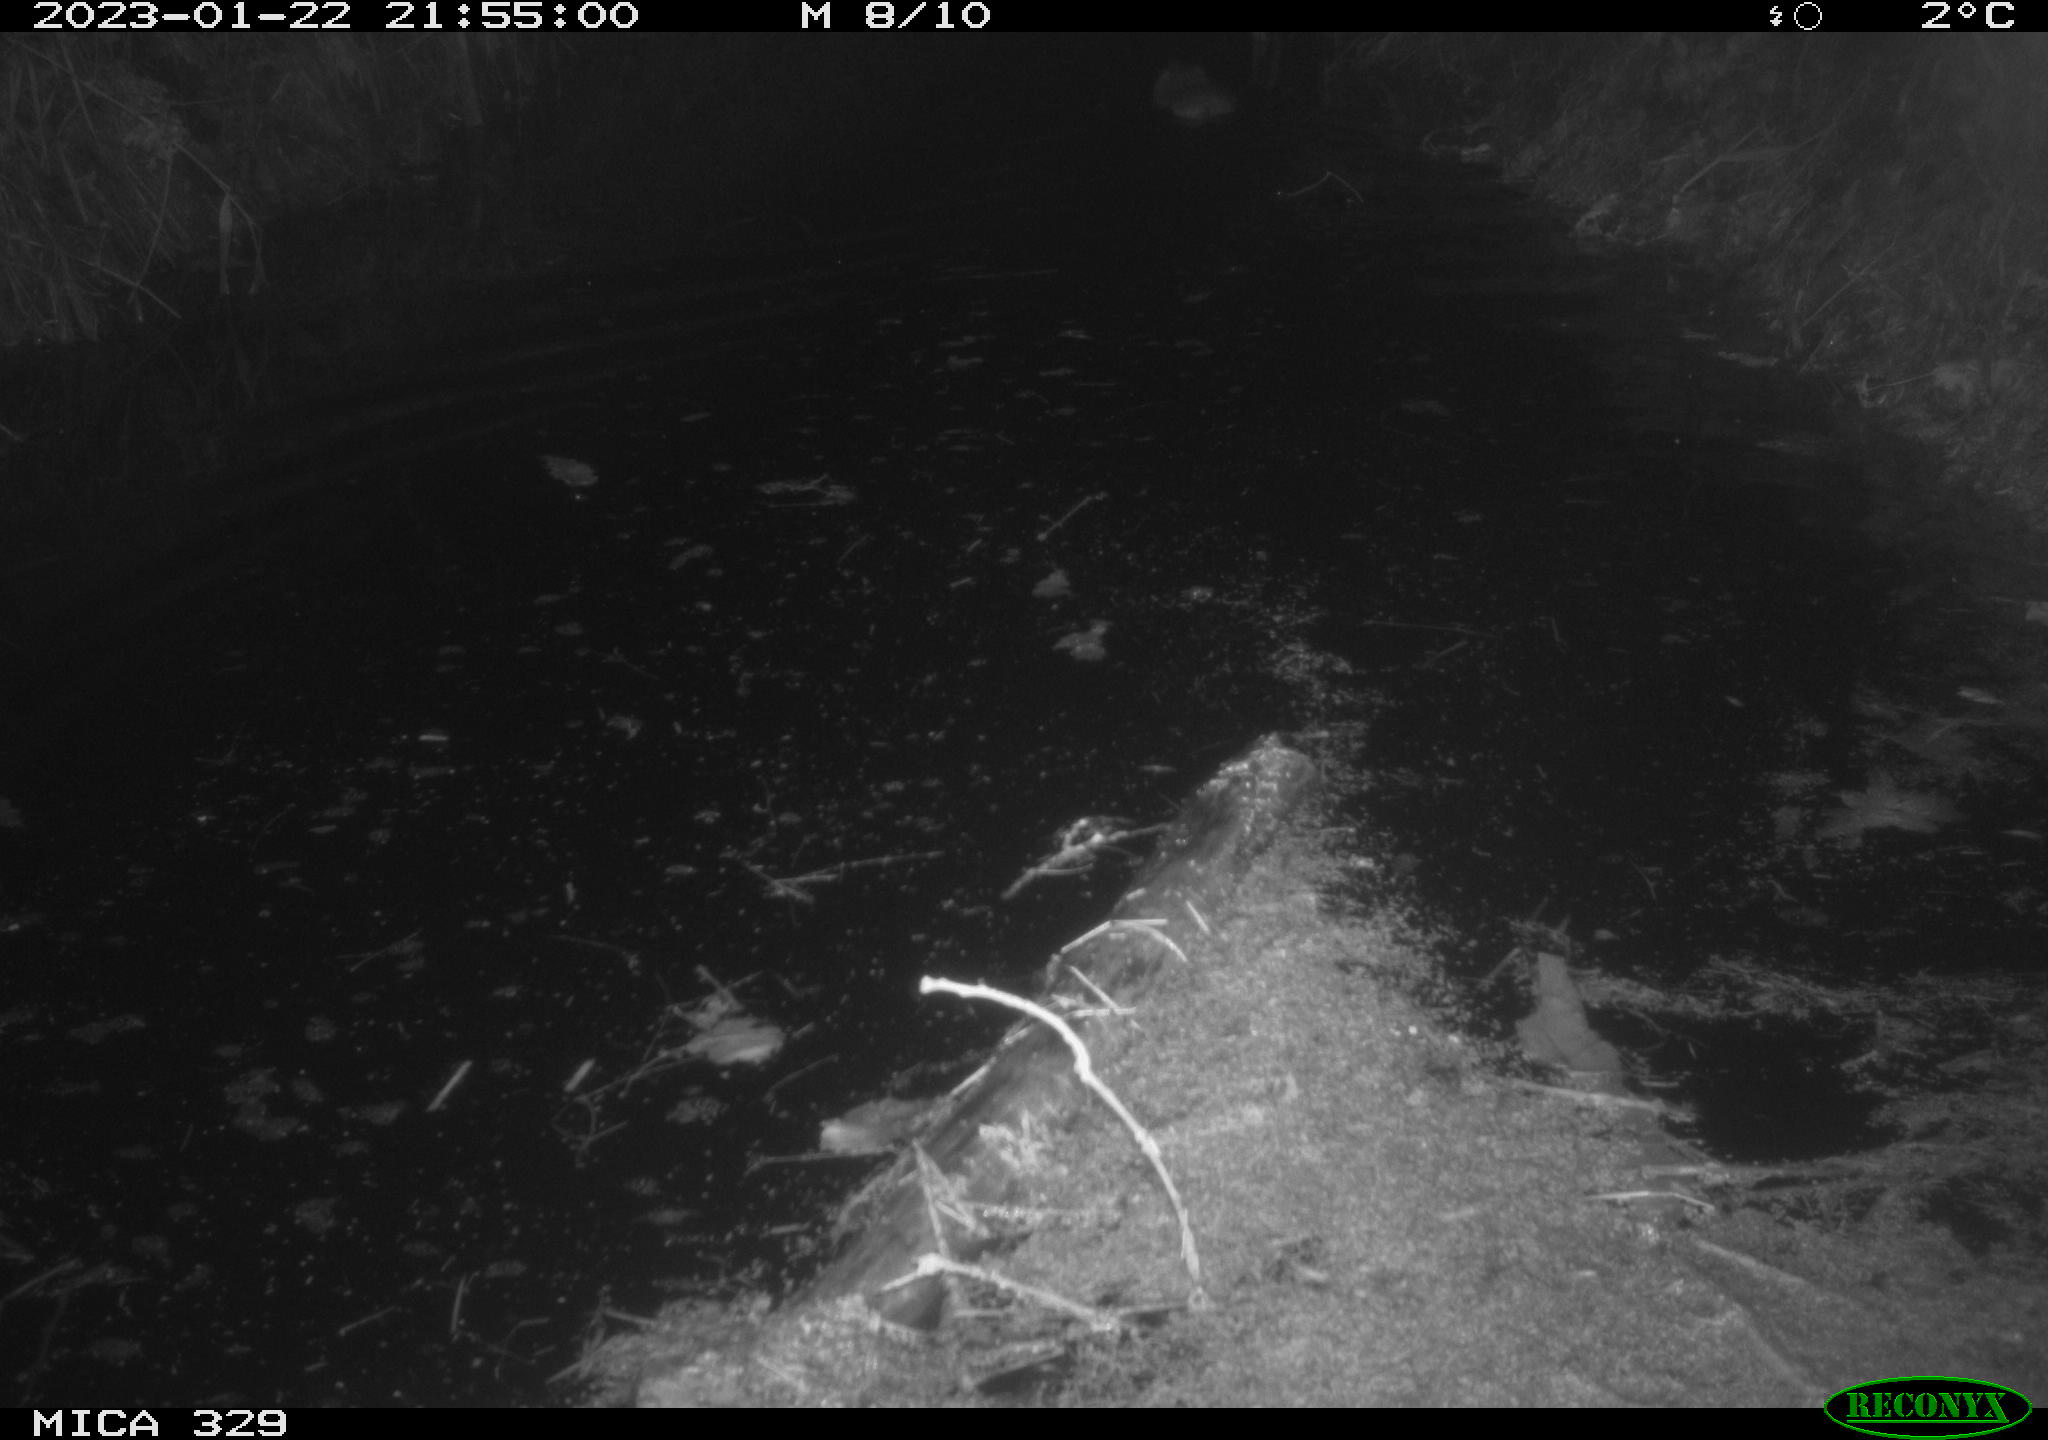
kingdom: Animalia
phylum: Chordata
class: Mammalia
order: Rodentia
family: Cricetidae
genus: Ondatra
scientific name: Ondatra zibethicus
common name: Muskrat
